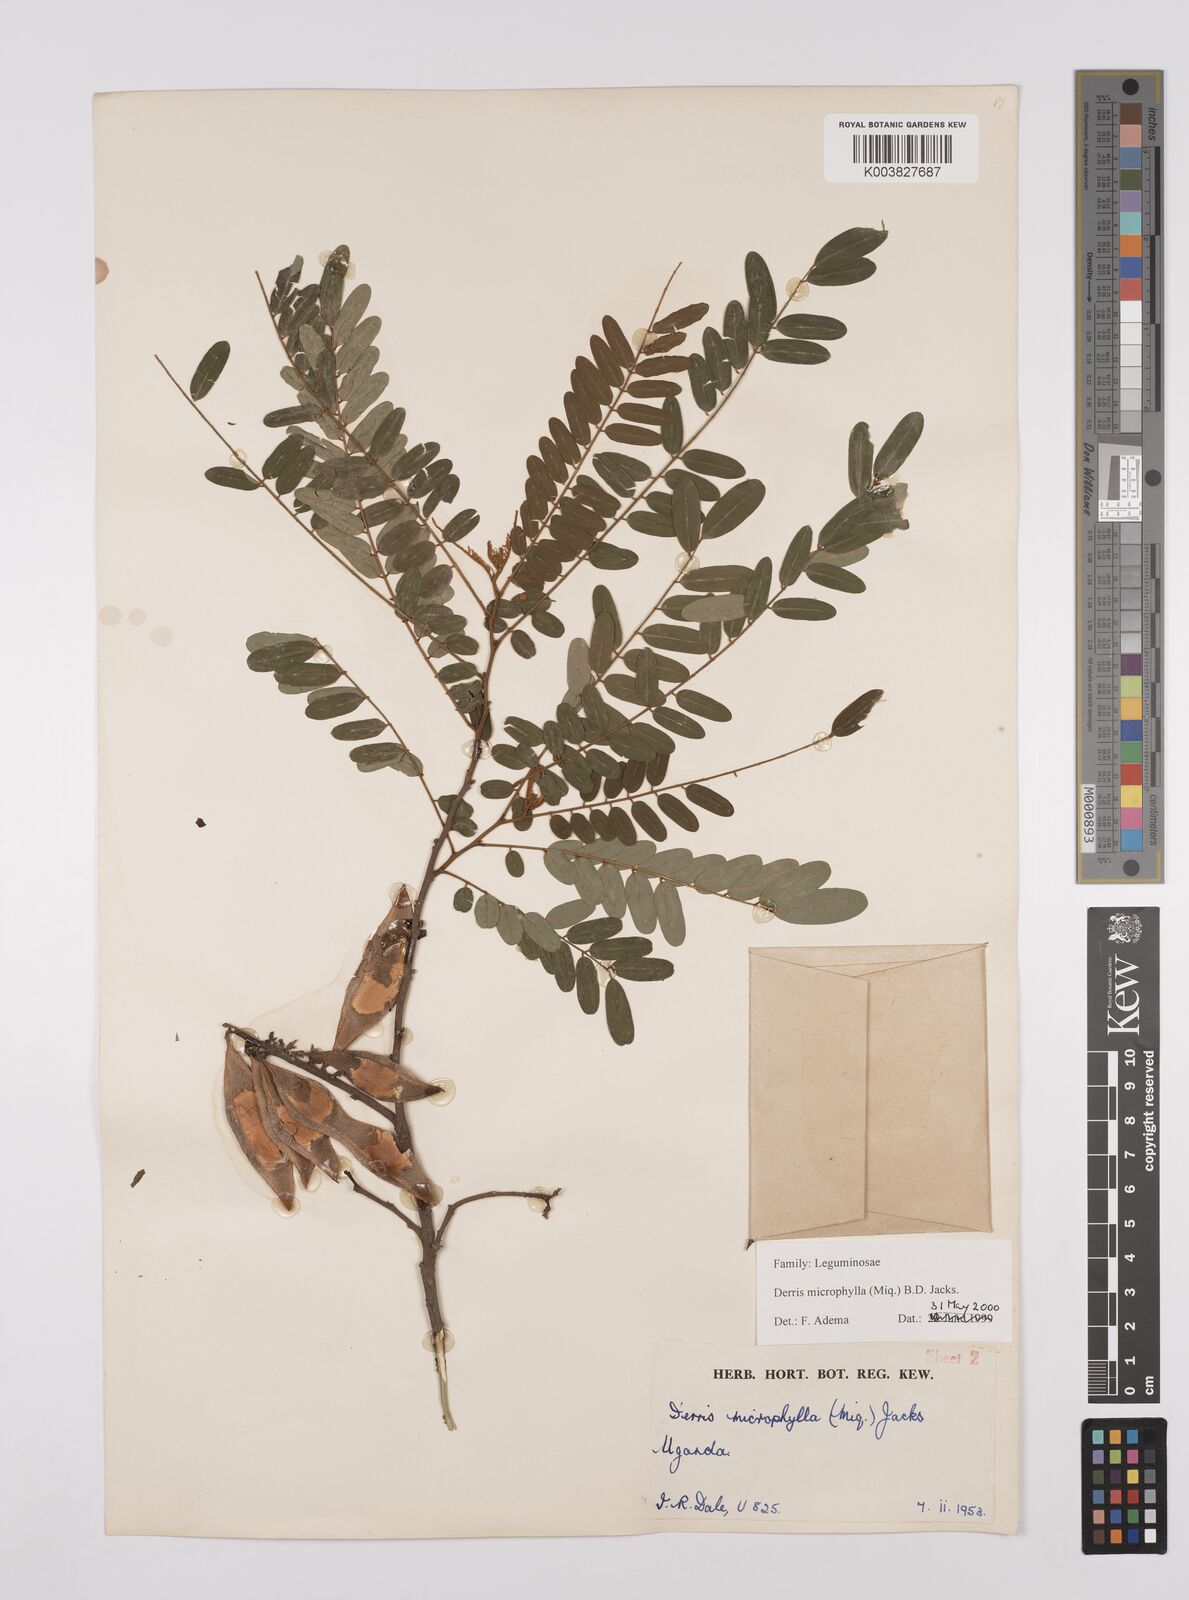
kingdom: Plantae
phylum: Tracheophyta
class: Magnoliopsida
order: Fabales
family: Fabaceae
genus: Brachypterum
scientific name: Brachypterum microphyllum
